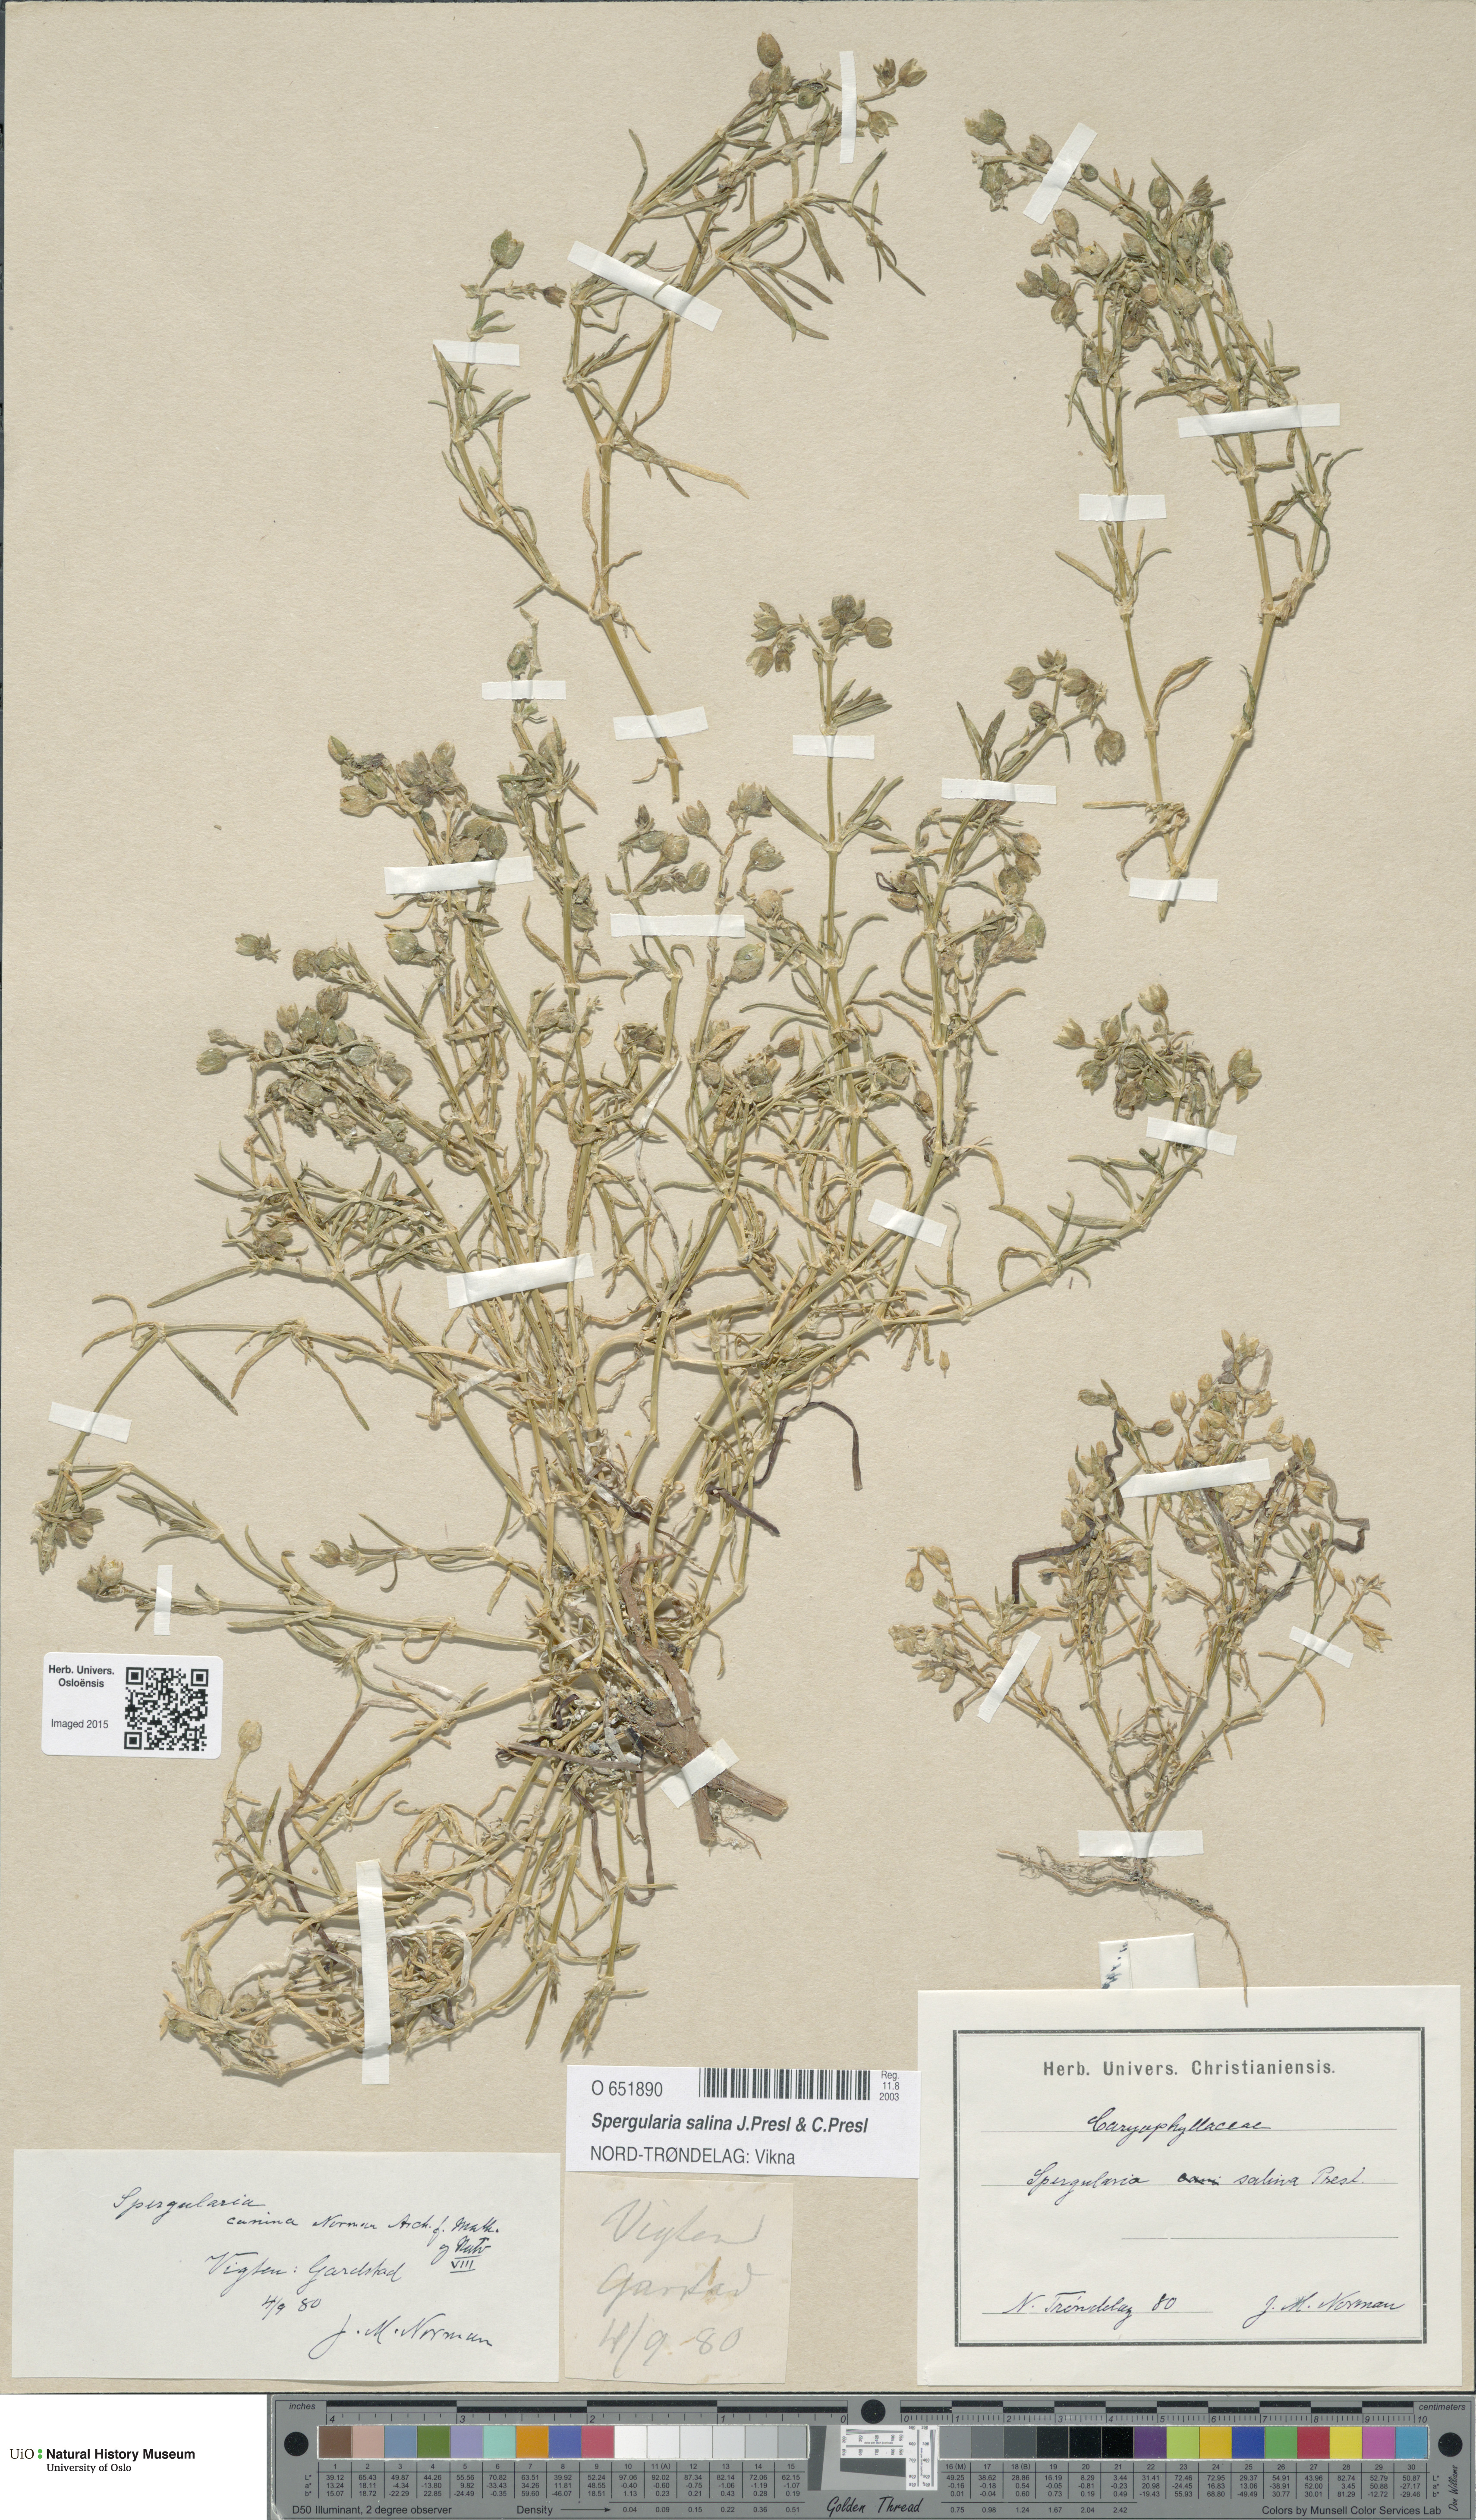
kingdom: Plantae
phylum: Tracheophyta
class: Magnoliopsida
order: Caryophyllales
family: Caryophyllaceae
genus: Spergularia
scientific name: Spergularia marina
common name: Lesser sea-spurrey
